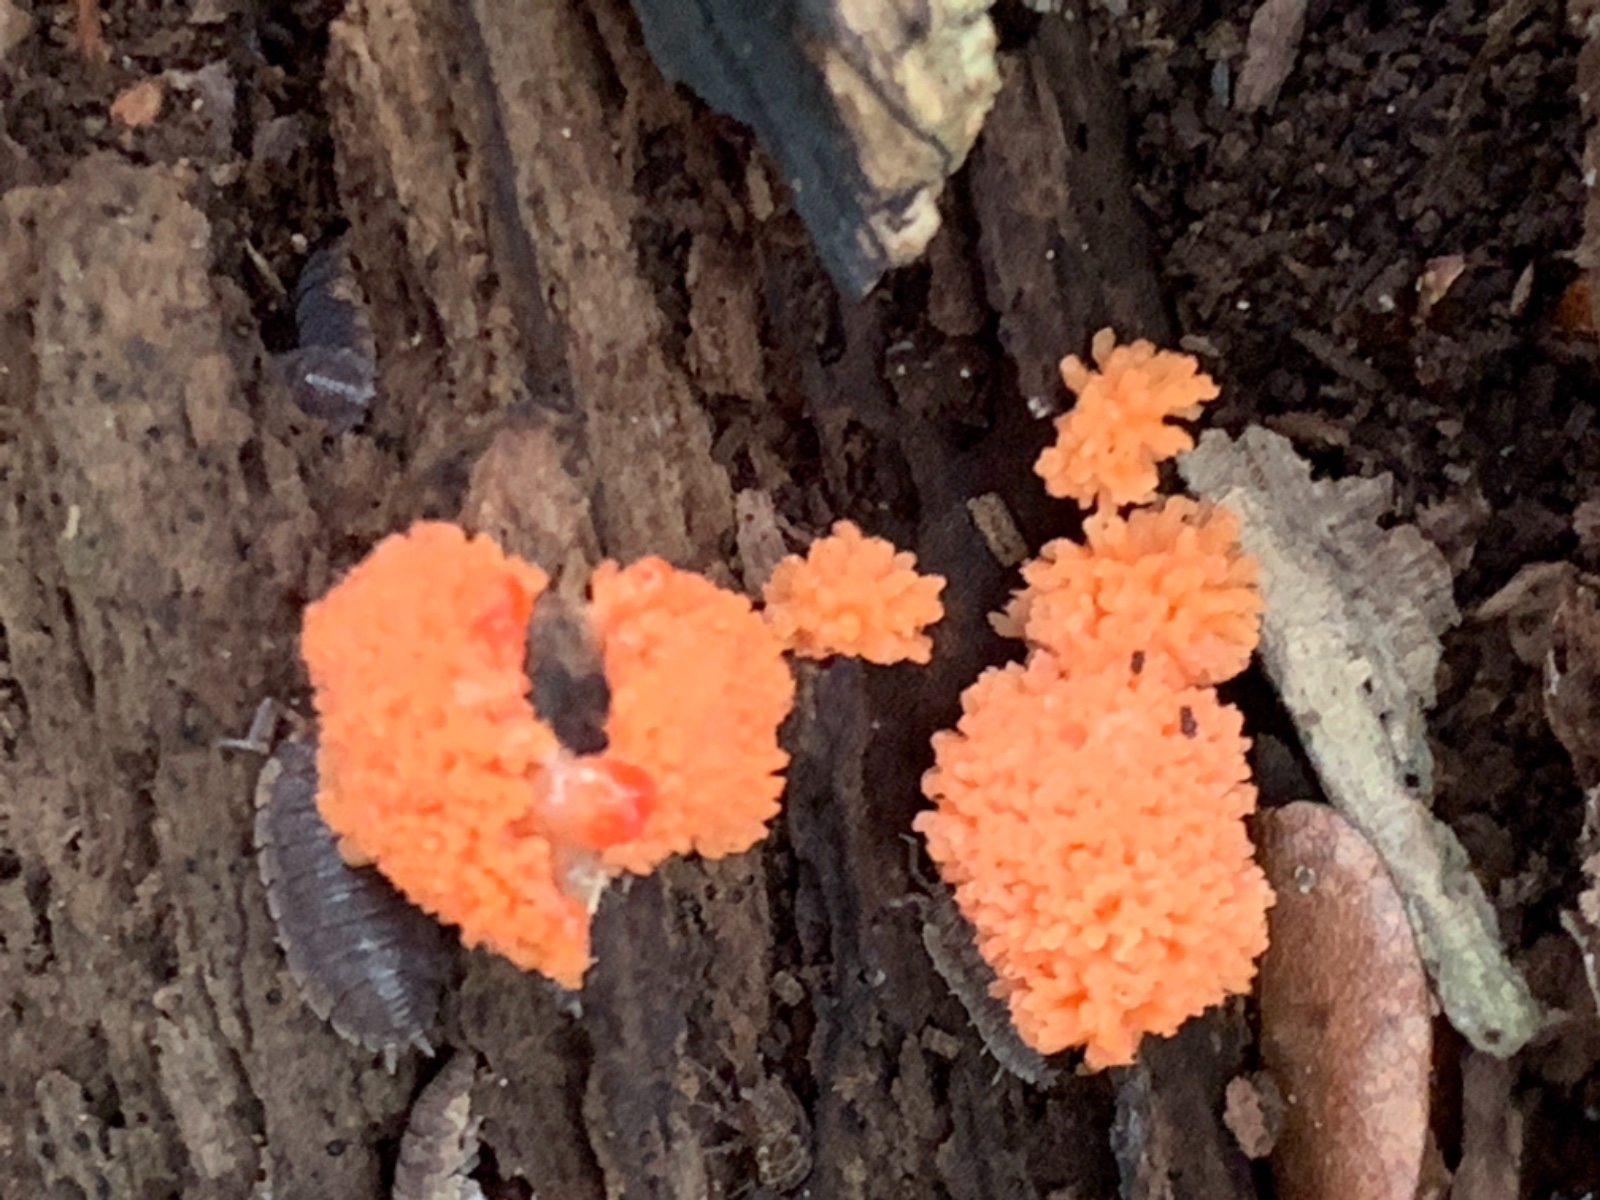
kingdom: Protozoa
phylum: Mycetozoa
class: Myxomycetes
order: Cribrariales
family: Tubiferaceae
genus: Tubifera
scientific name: Tubifera ferruginosa
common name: kanel-støvrør
